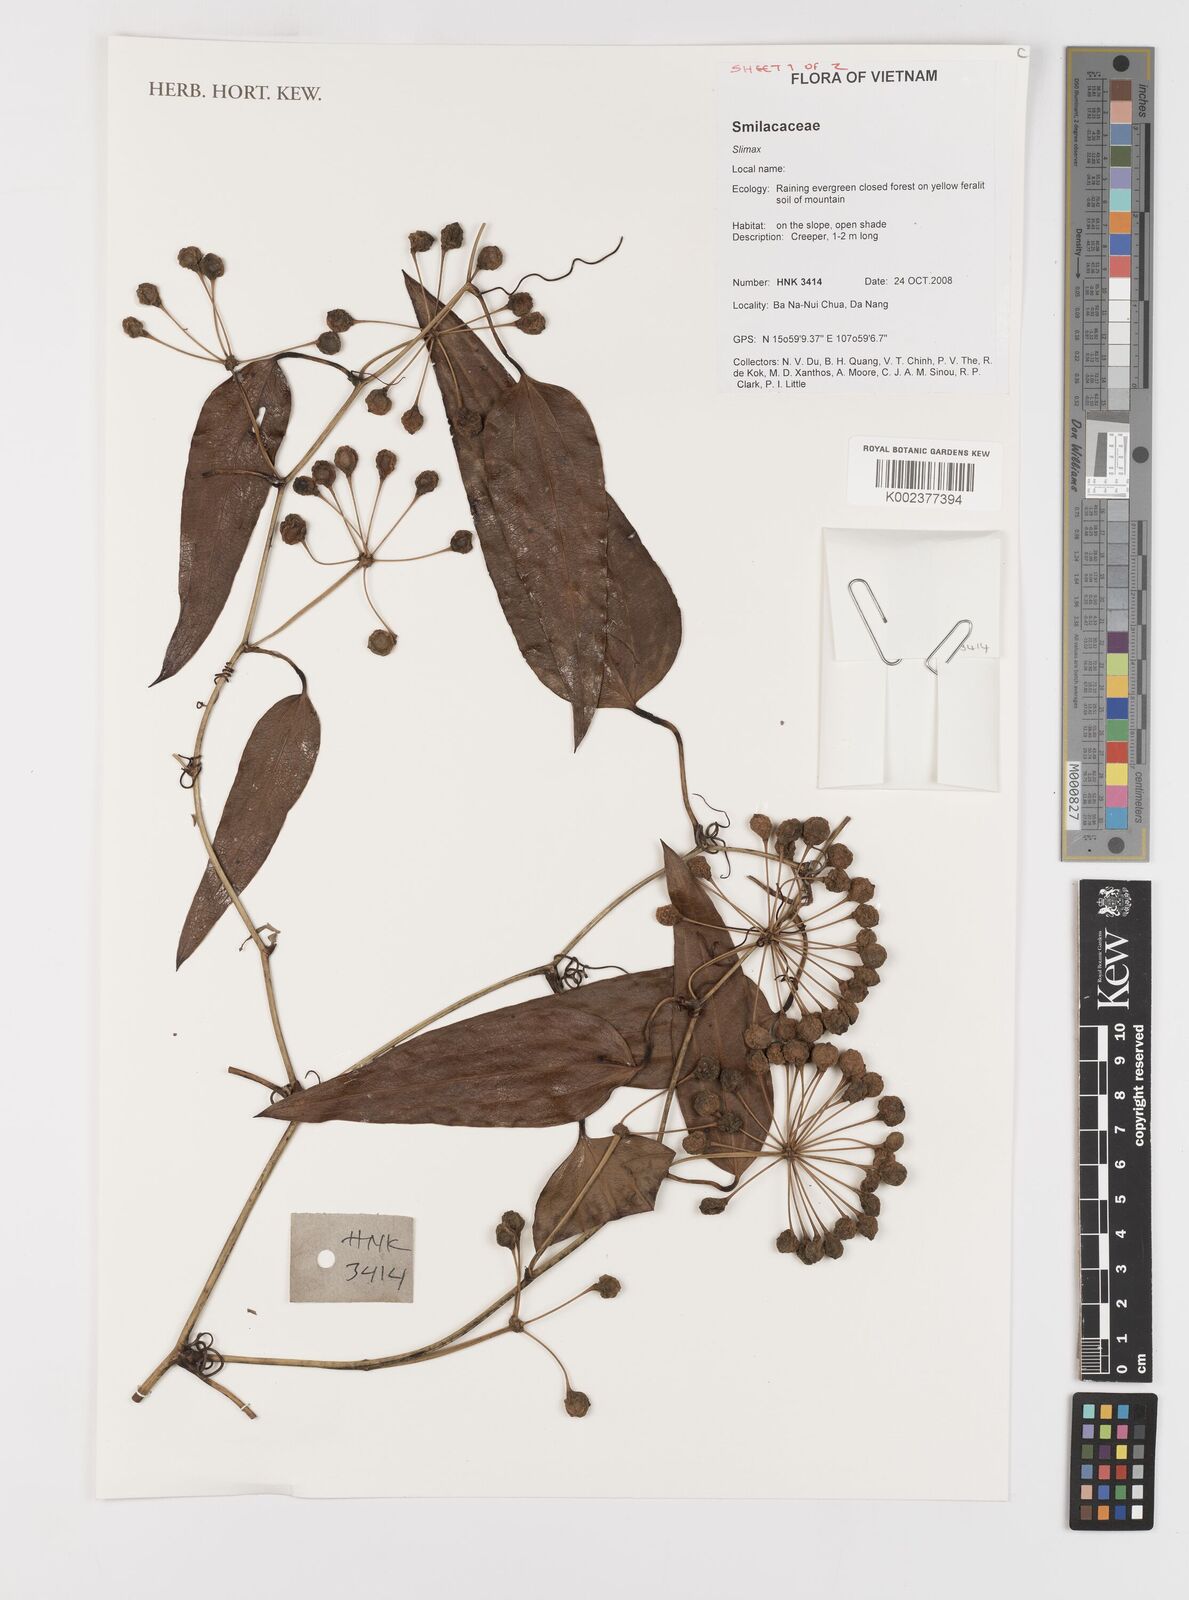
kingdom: Plantae
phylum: Tracheophyta
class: Liliopsida
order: Liliales
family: Smilacaceae
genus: Smilax
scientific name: Smilax
